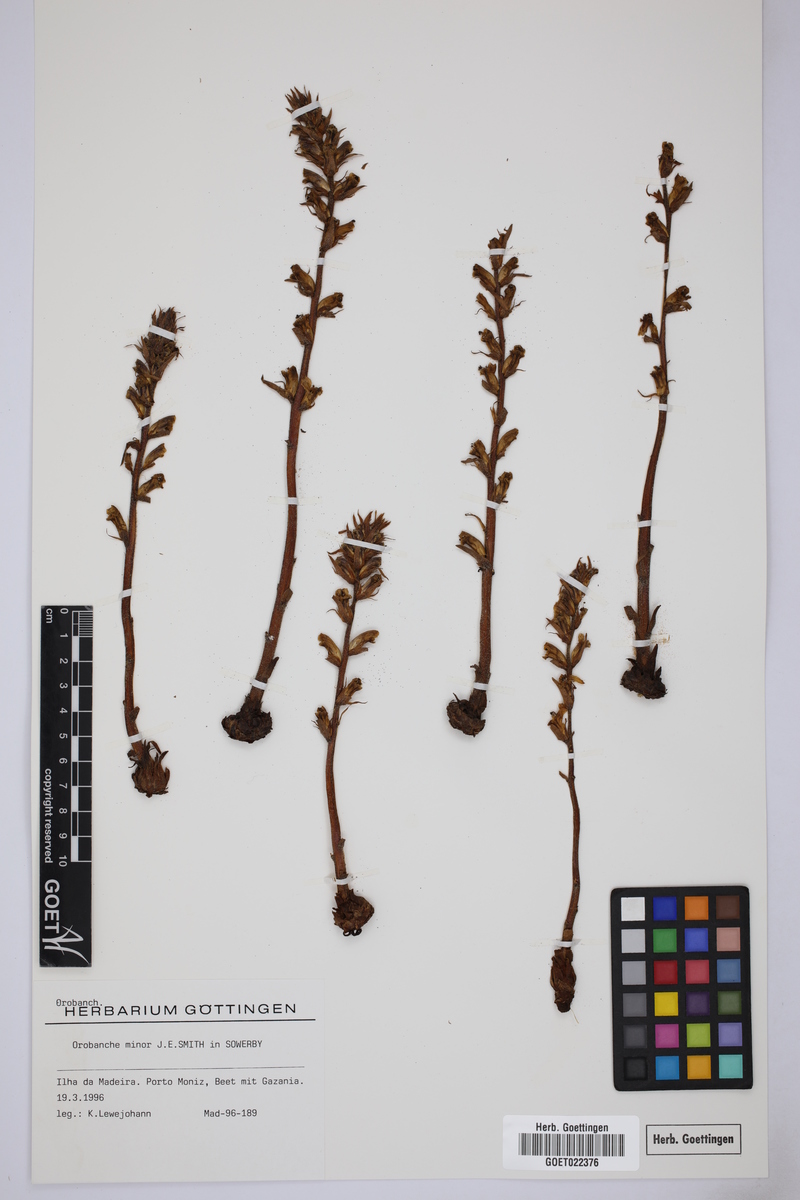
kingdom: Plantae
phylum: Tracheophyta
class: Magnoliopsida
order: Lamiales
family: Orobanchaceae
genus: Orobanche
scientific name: Orobanche minor
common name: Common broomrape
